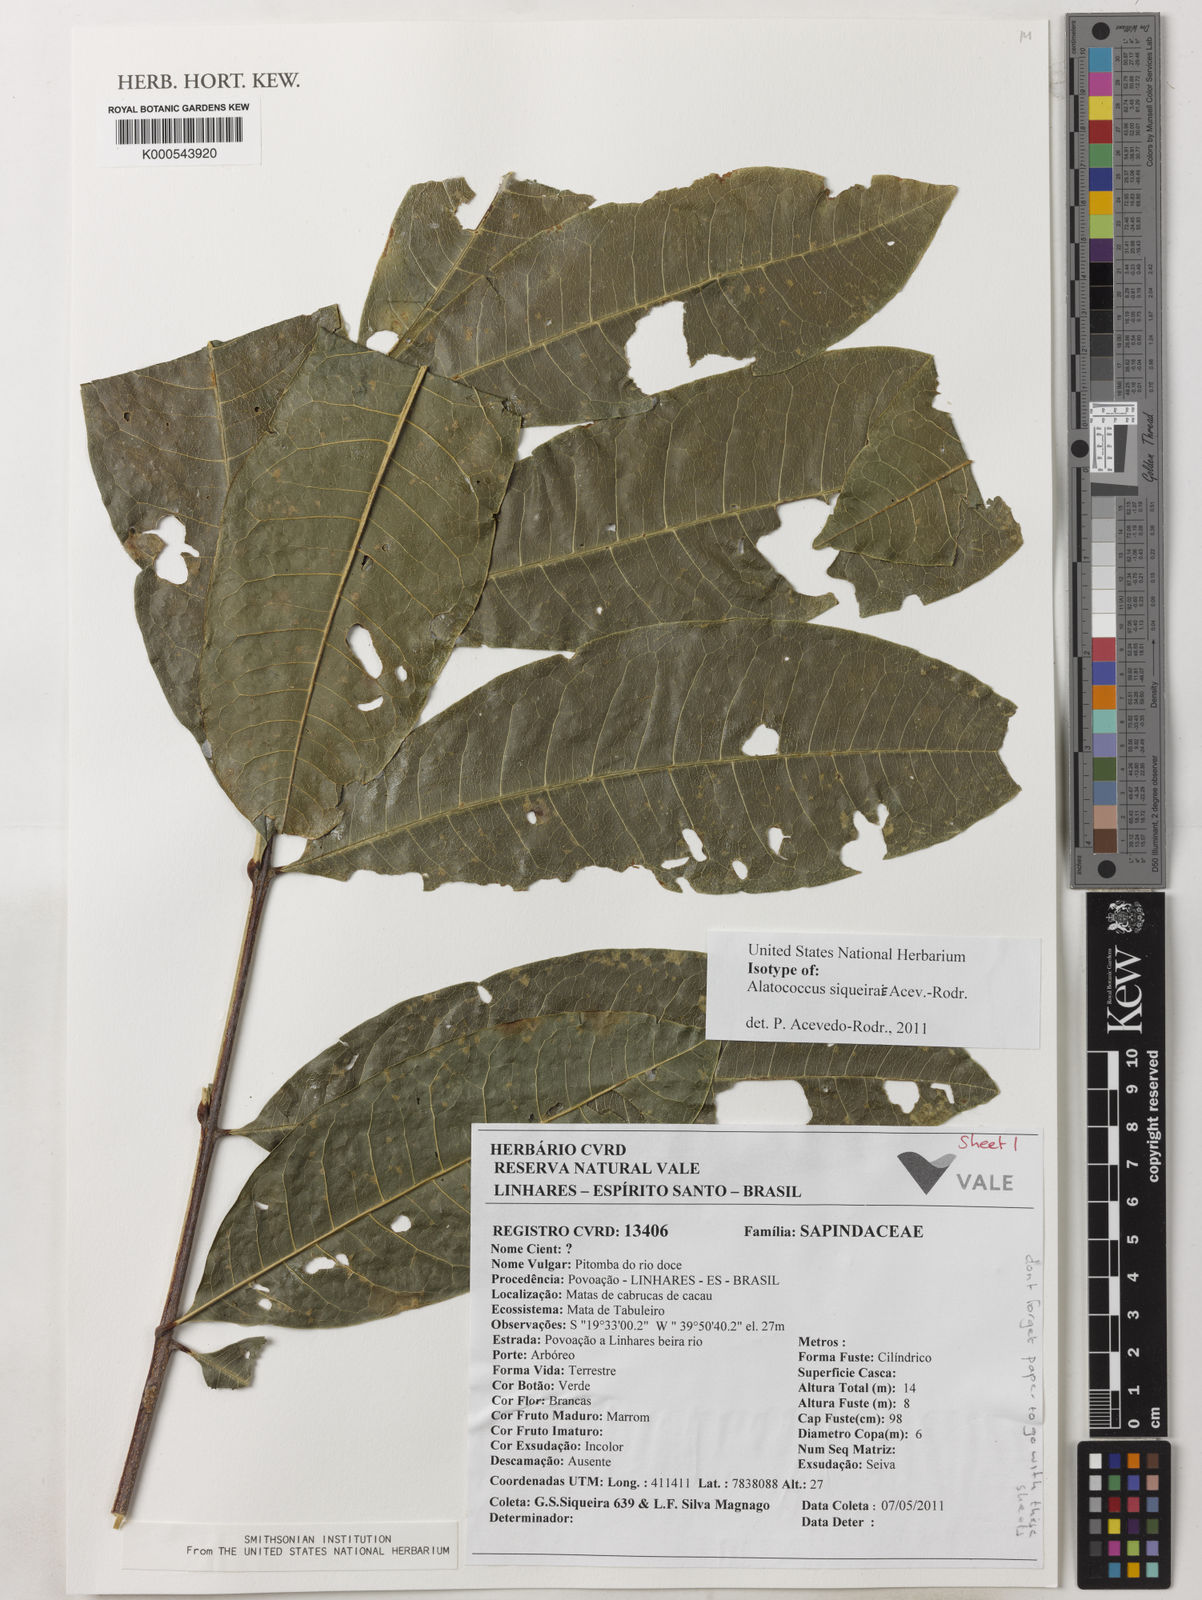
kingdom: Plantae
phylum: Tracheophyta
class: Magnoliopsida
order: Sapindales
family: Sapindaceae
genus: Alatococcus
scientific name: Alatococcus siqueirae
